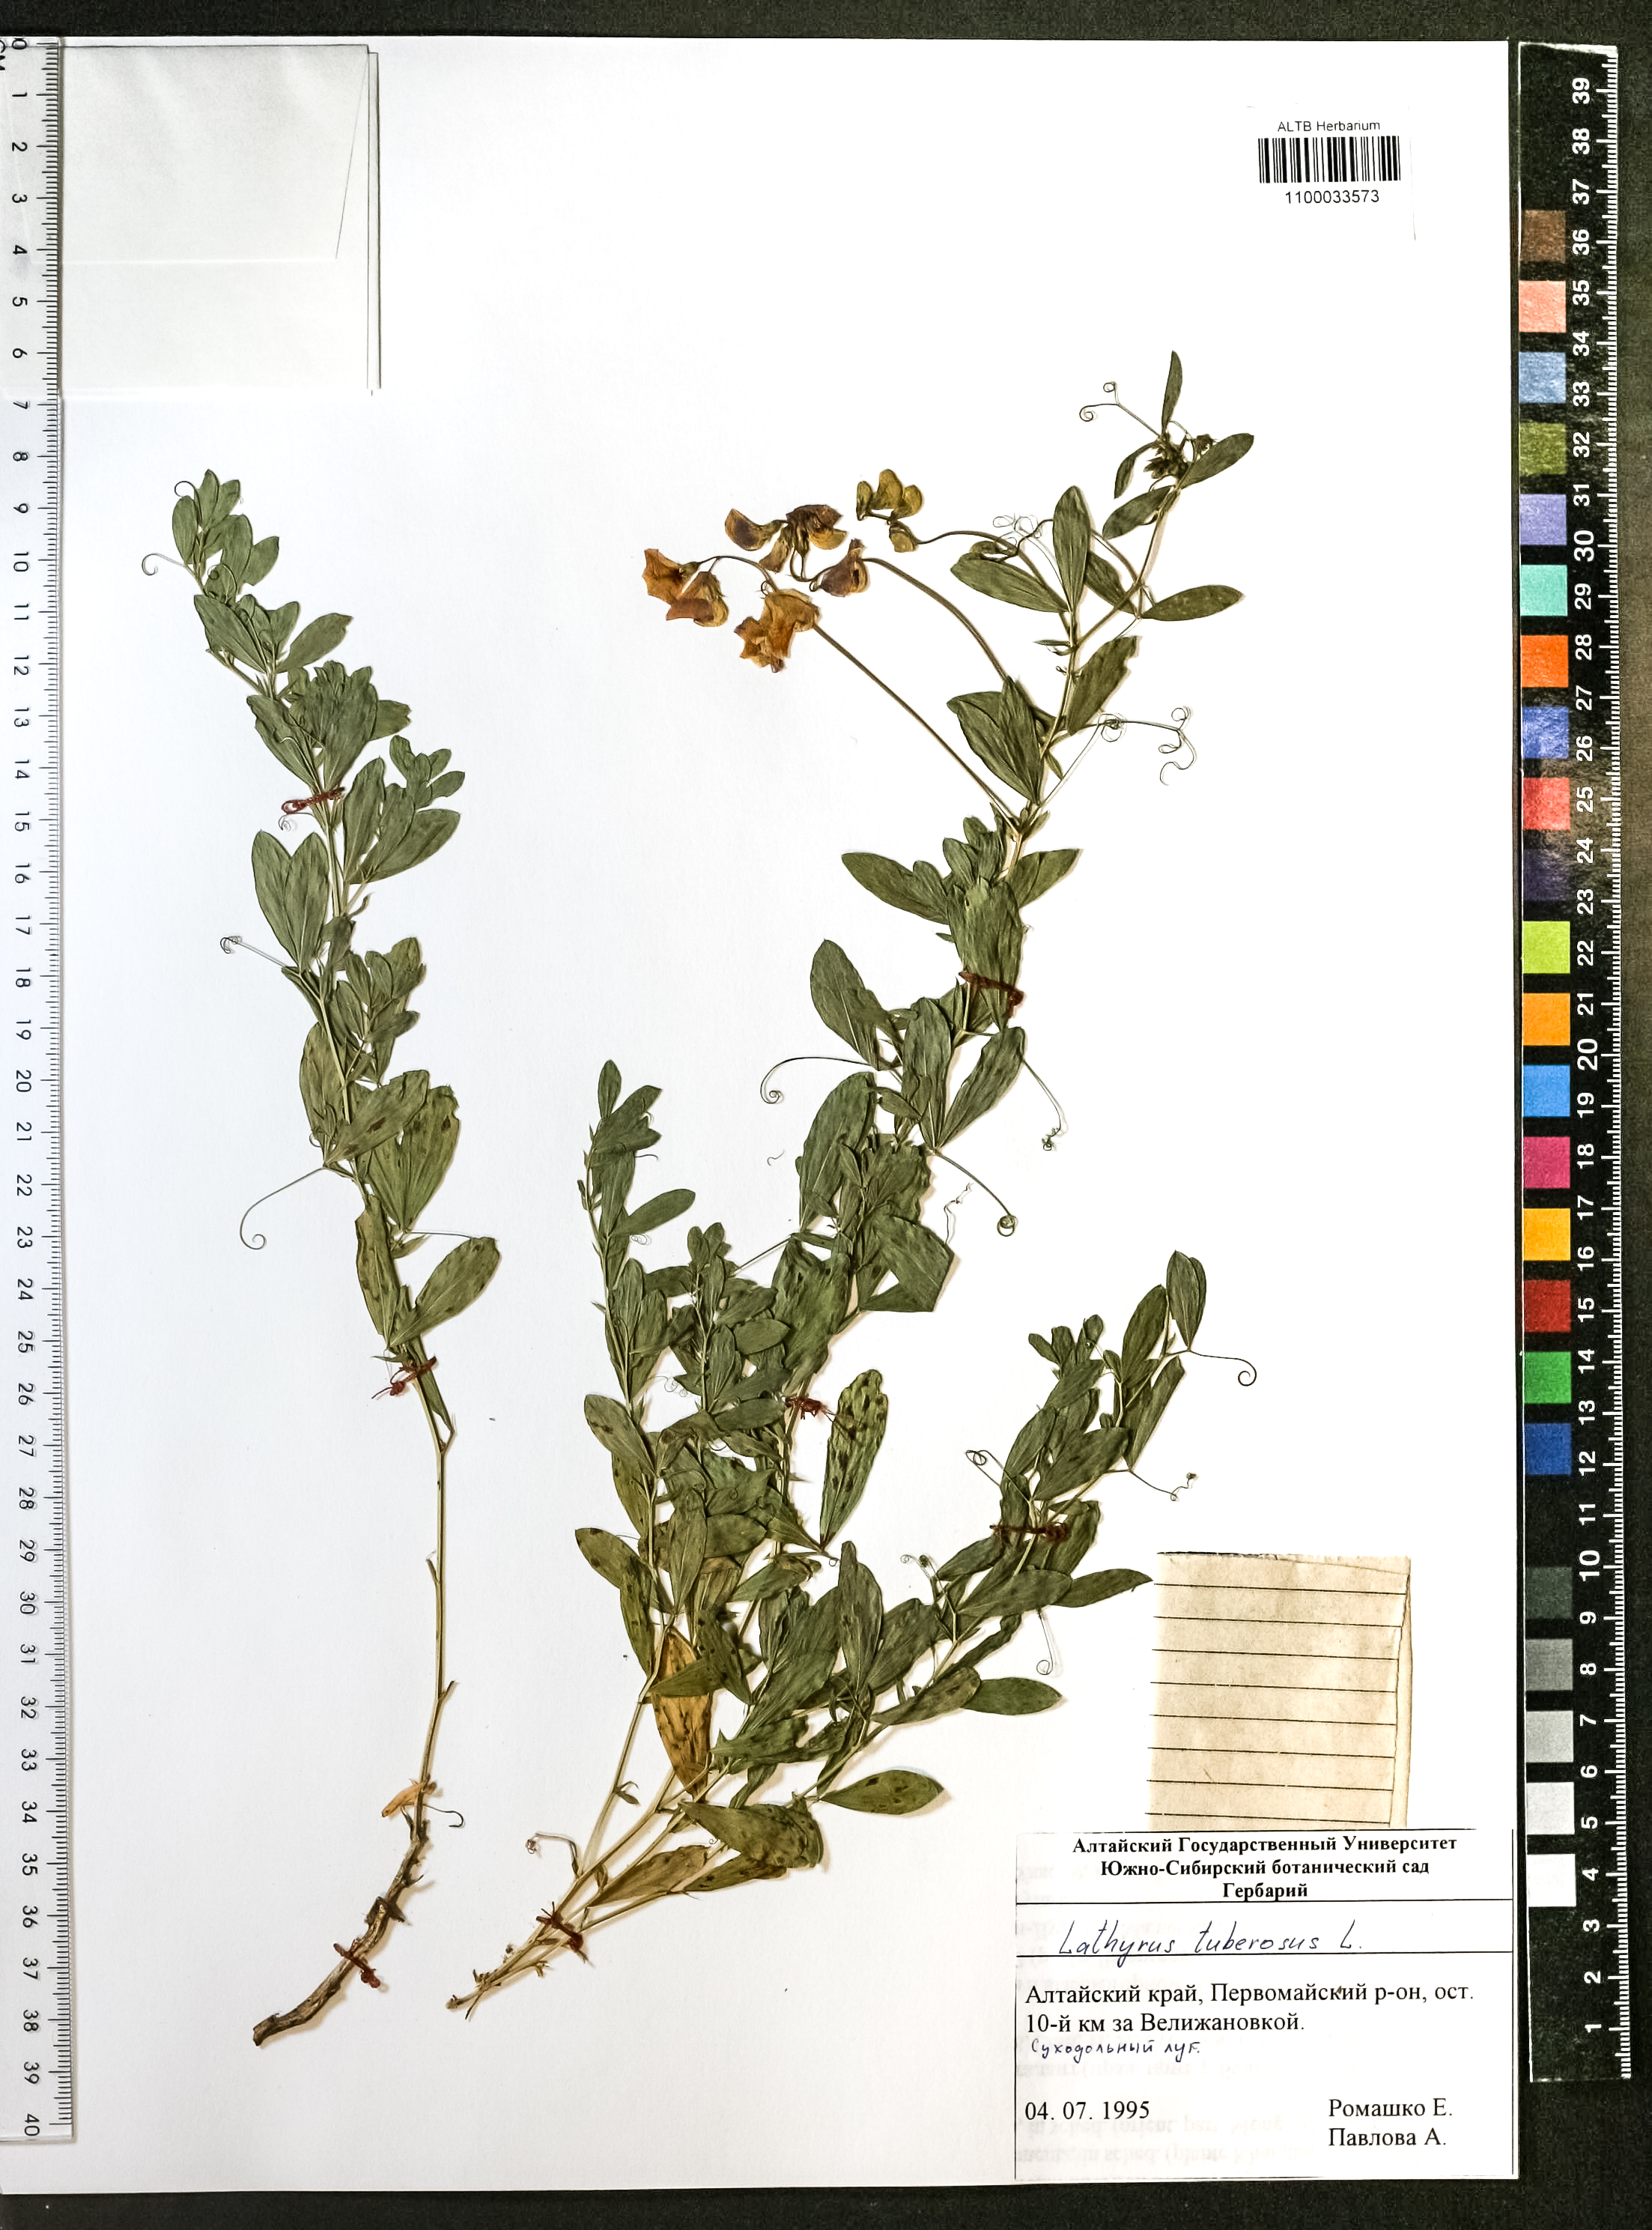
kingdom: Plantae
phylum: Tracheophyta
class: Magnoliopsida
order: Fabales
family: Fabaceae
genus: Lathyrus
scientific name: Lathyrus tuberosus
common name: Tuberous pea
